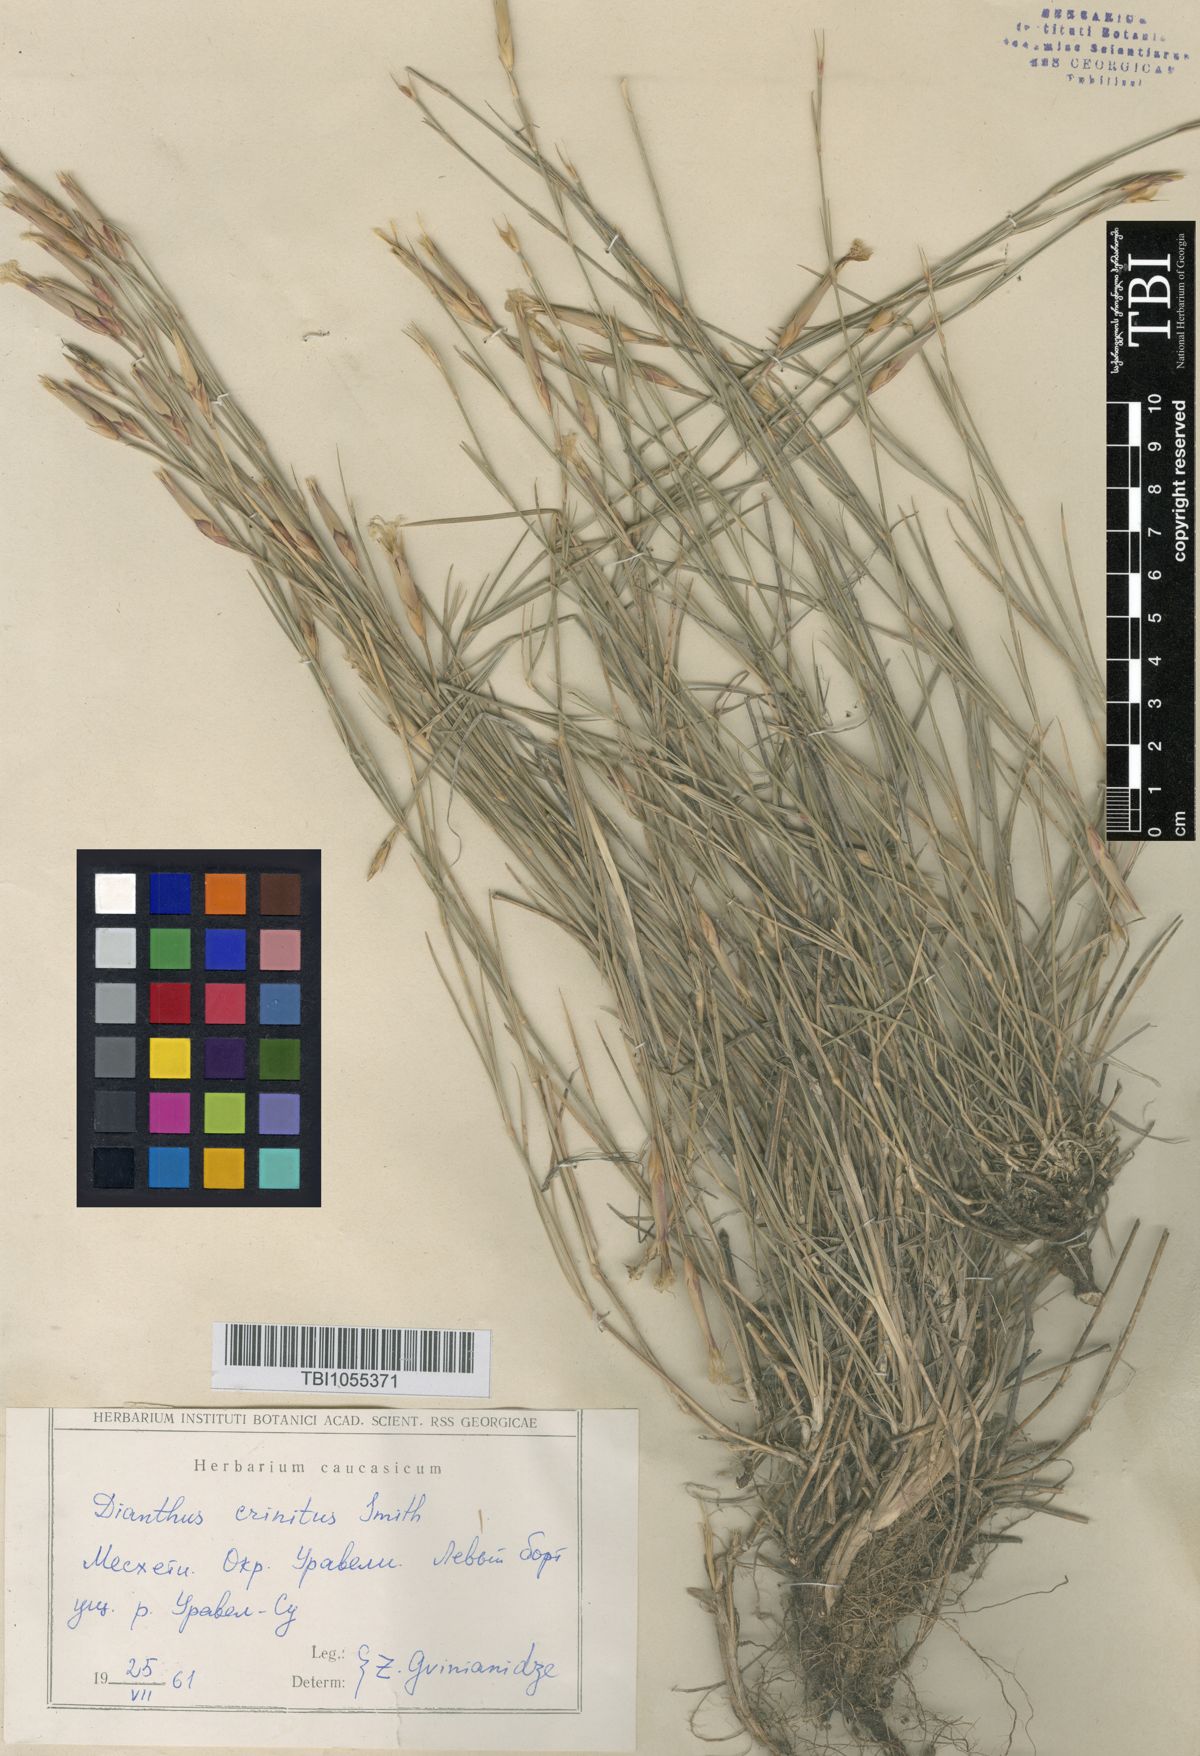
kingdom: Plantae
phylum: Tracheophyta
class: Magnoliopsida
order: Caryophyllales
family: Caryophyllaceae
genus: Dianthus
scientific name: Dianthus crinitus
